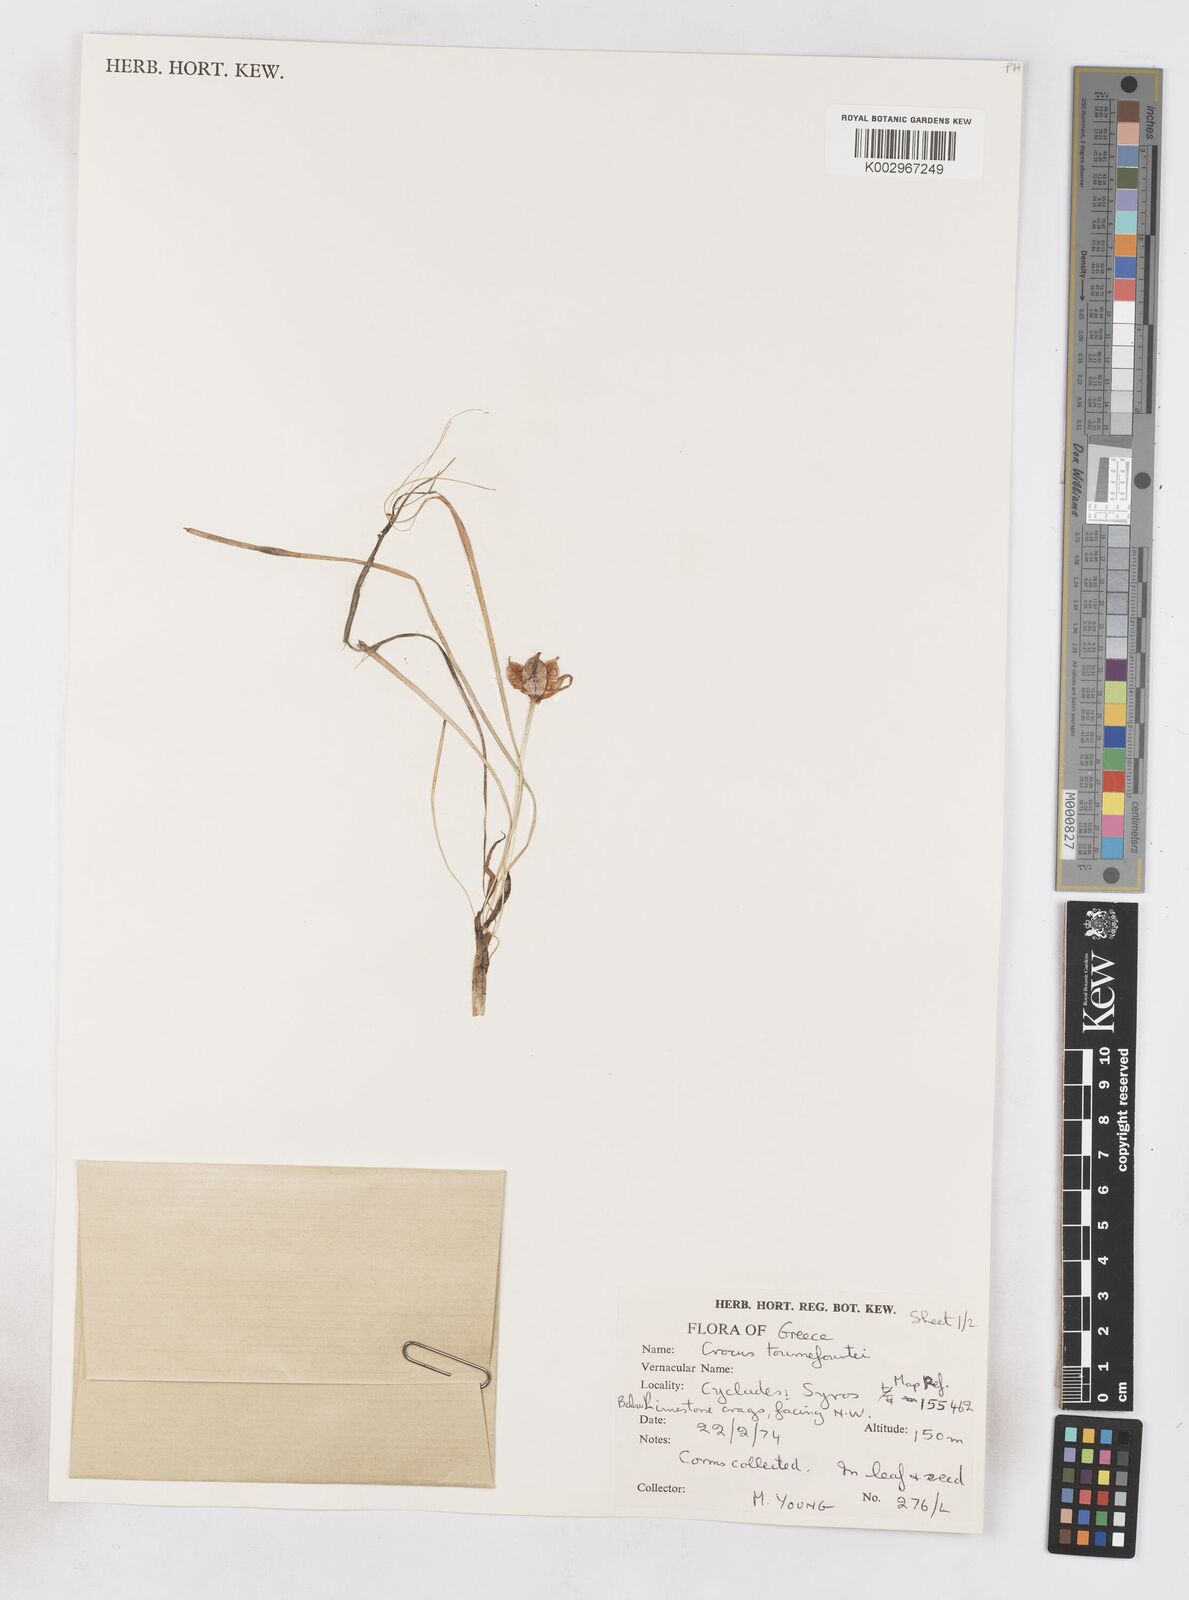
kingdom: Plantae
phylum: Tracheophyta
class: Liliopsida
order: Asparagales
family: Iridaceae
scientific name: Iridaceae
